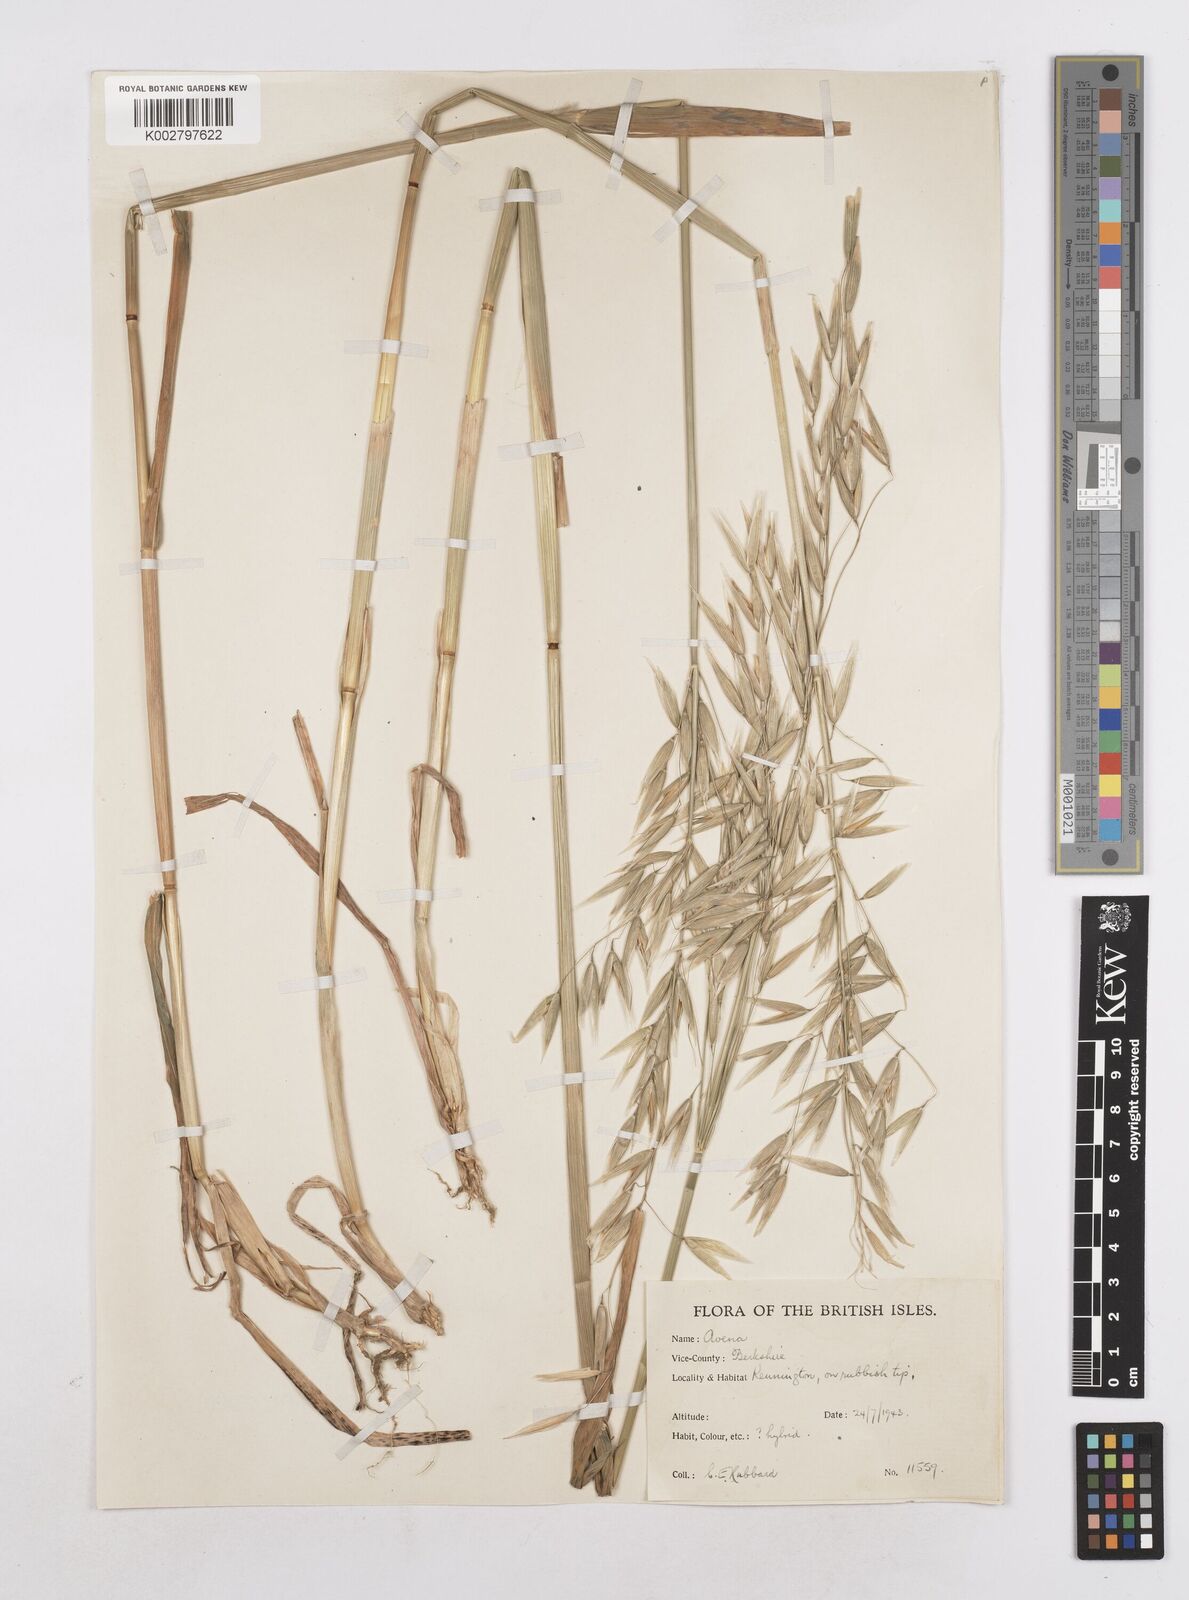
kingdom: Plantae
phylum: Tracheophyta
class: Liliopsida
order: Poales
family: Poaceae
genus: Avena
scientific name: Avena sativa
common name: Oat
